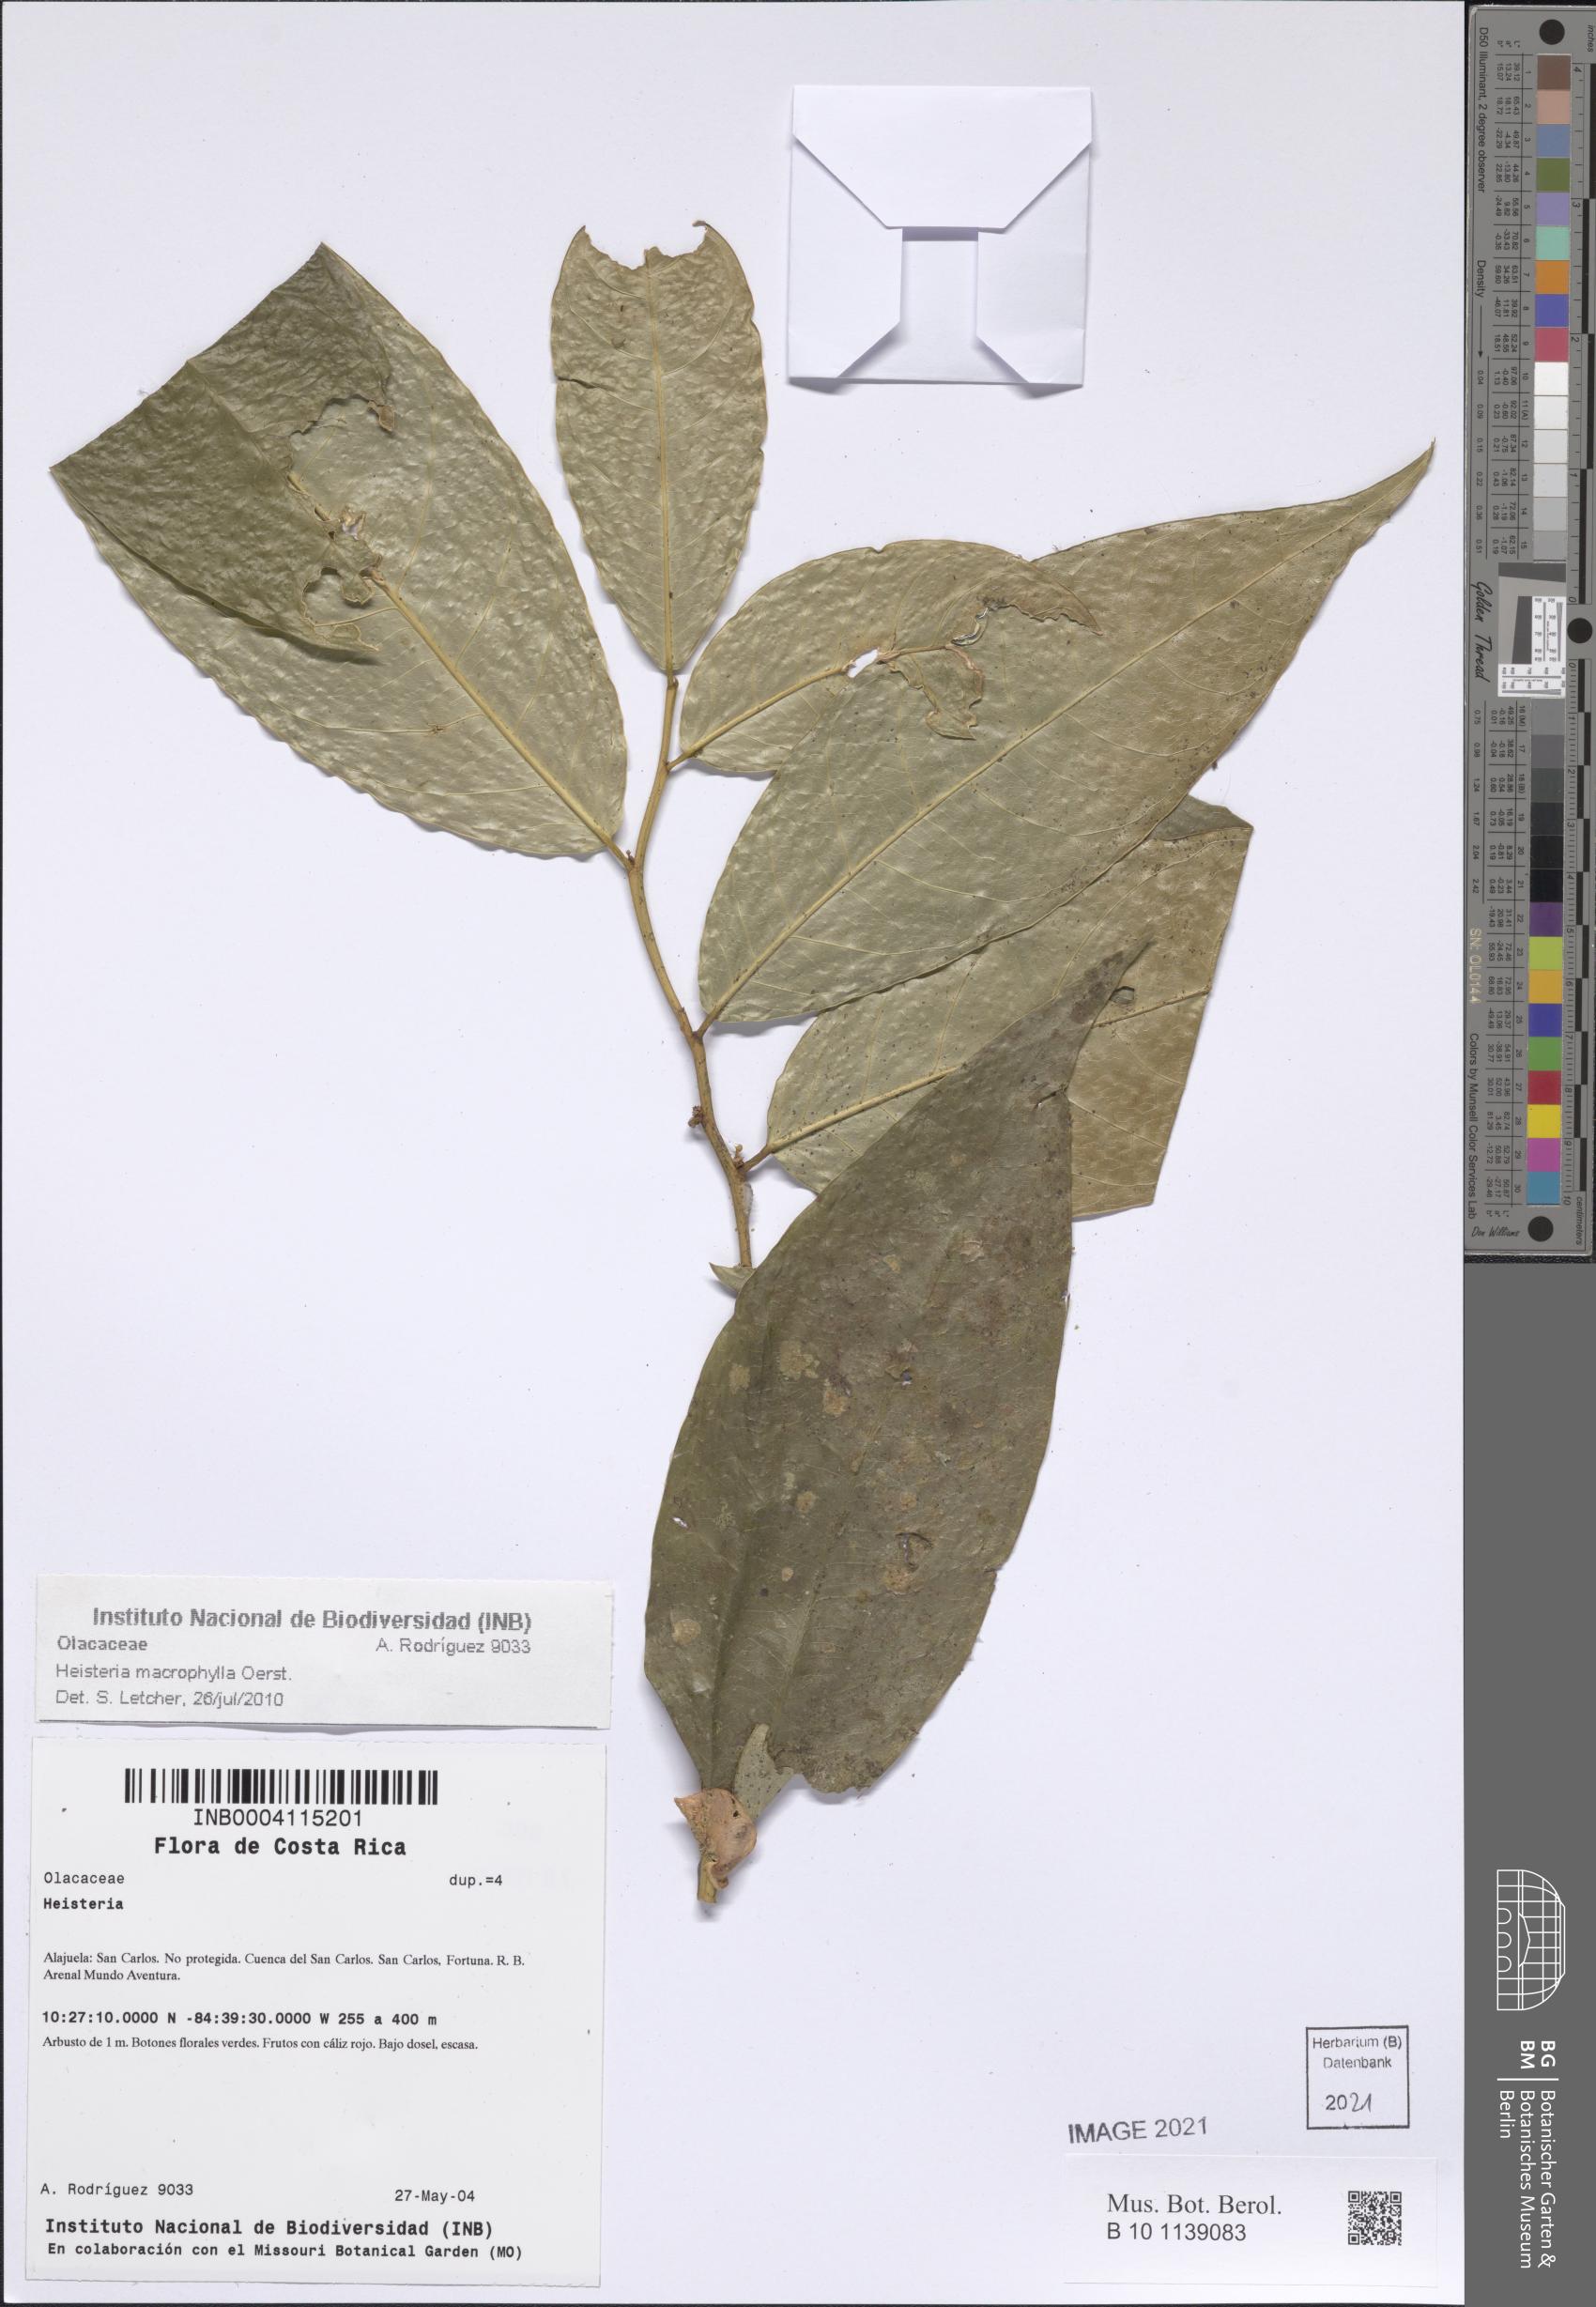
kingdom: Plantae
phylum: Tracheophyta
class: Magnoliopsida
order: Santalales
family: Erythropalaceae
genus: Heisteria
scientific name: Heisteria macrophylla
